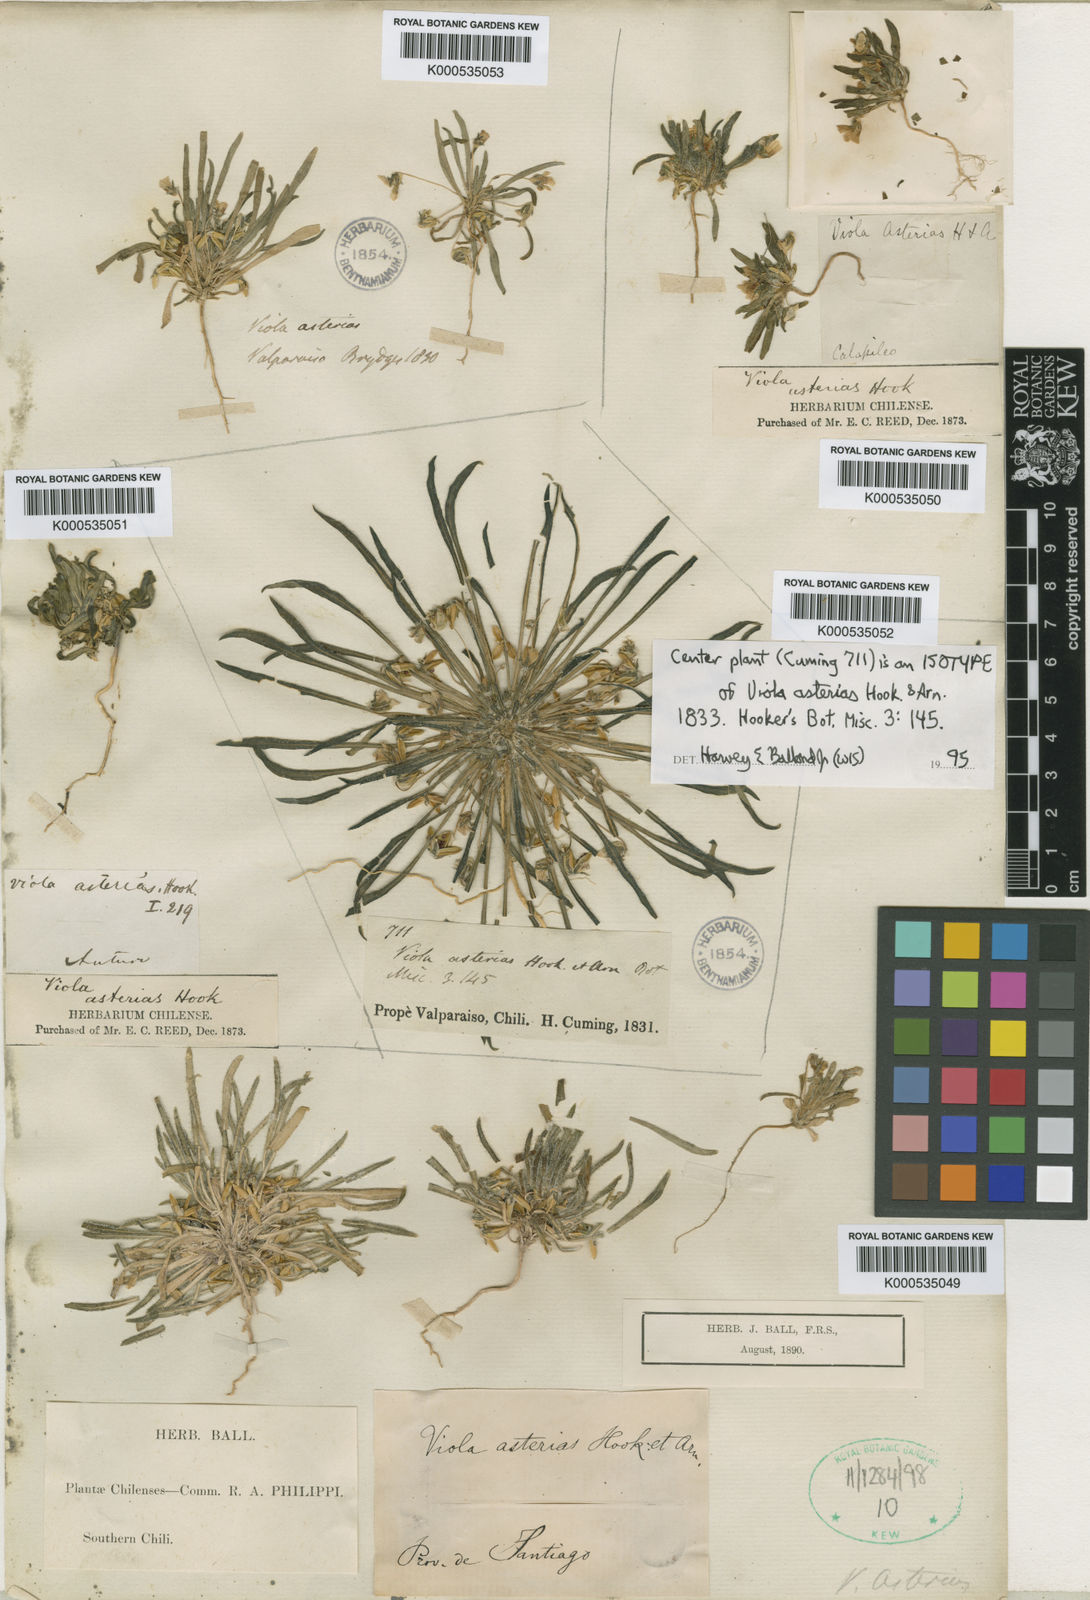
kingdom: Plantae
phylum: Tracheophyta
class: Magnoliopsida
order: Malpighiales
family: Violaceae
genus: Viola
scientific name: Viola pusilla
